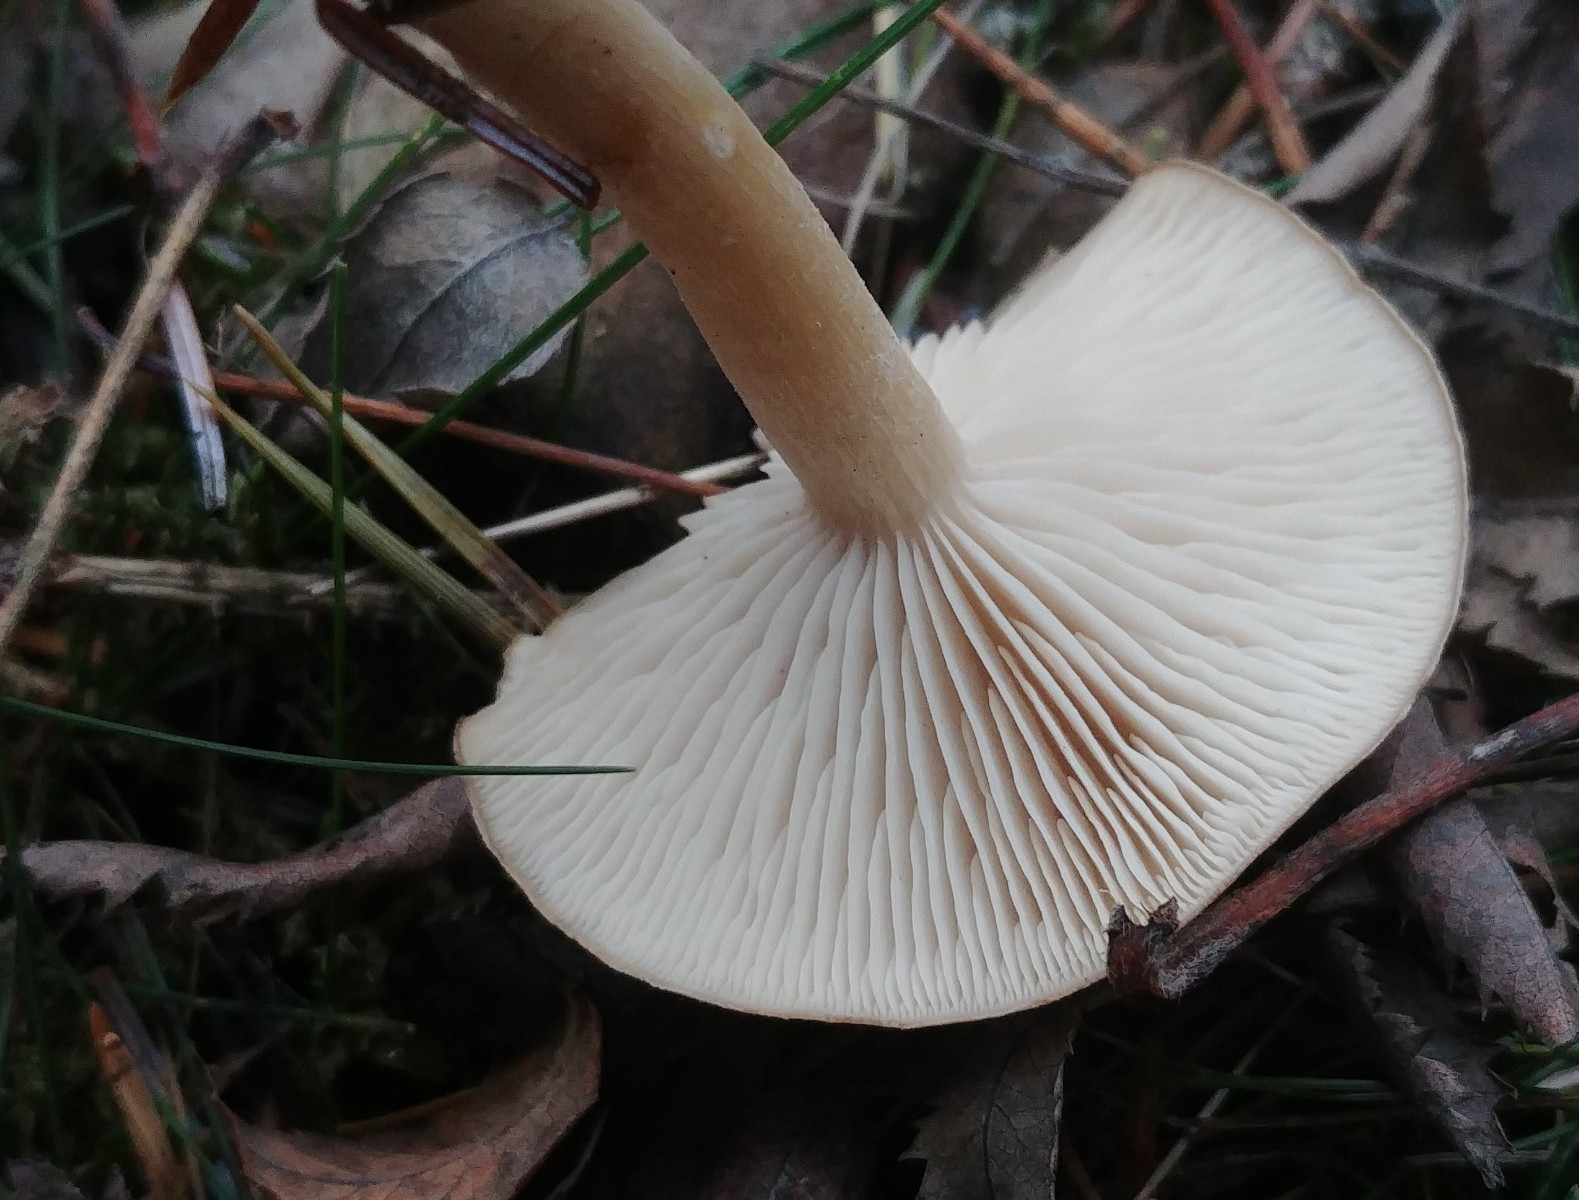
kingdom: Fungi
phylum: Basidiomycota
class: Agaricomycetes
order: Agaricales
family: Tricholomataceae
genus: Clitocybe
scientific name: Clitocybe fragrans
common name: vellugtende tragthat
